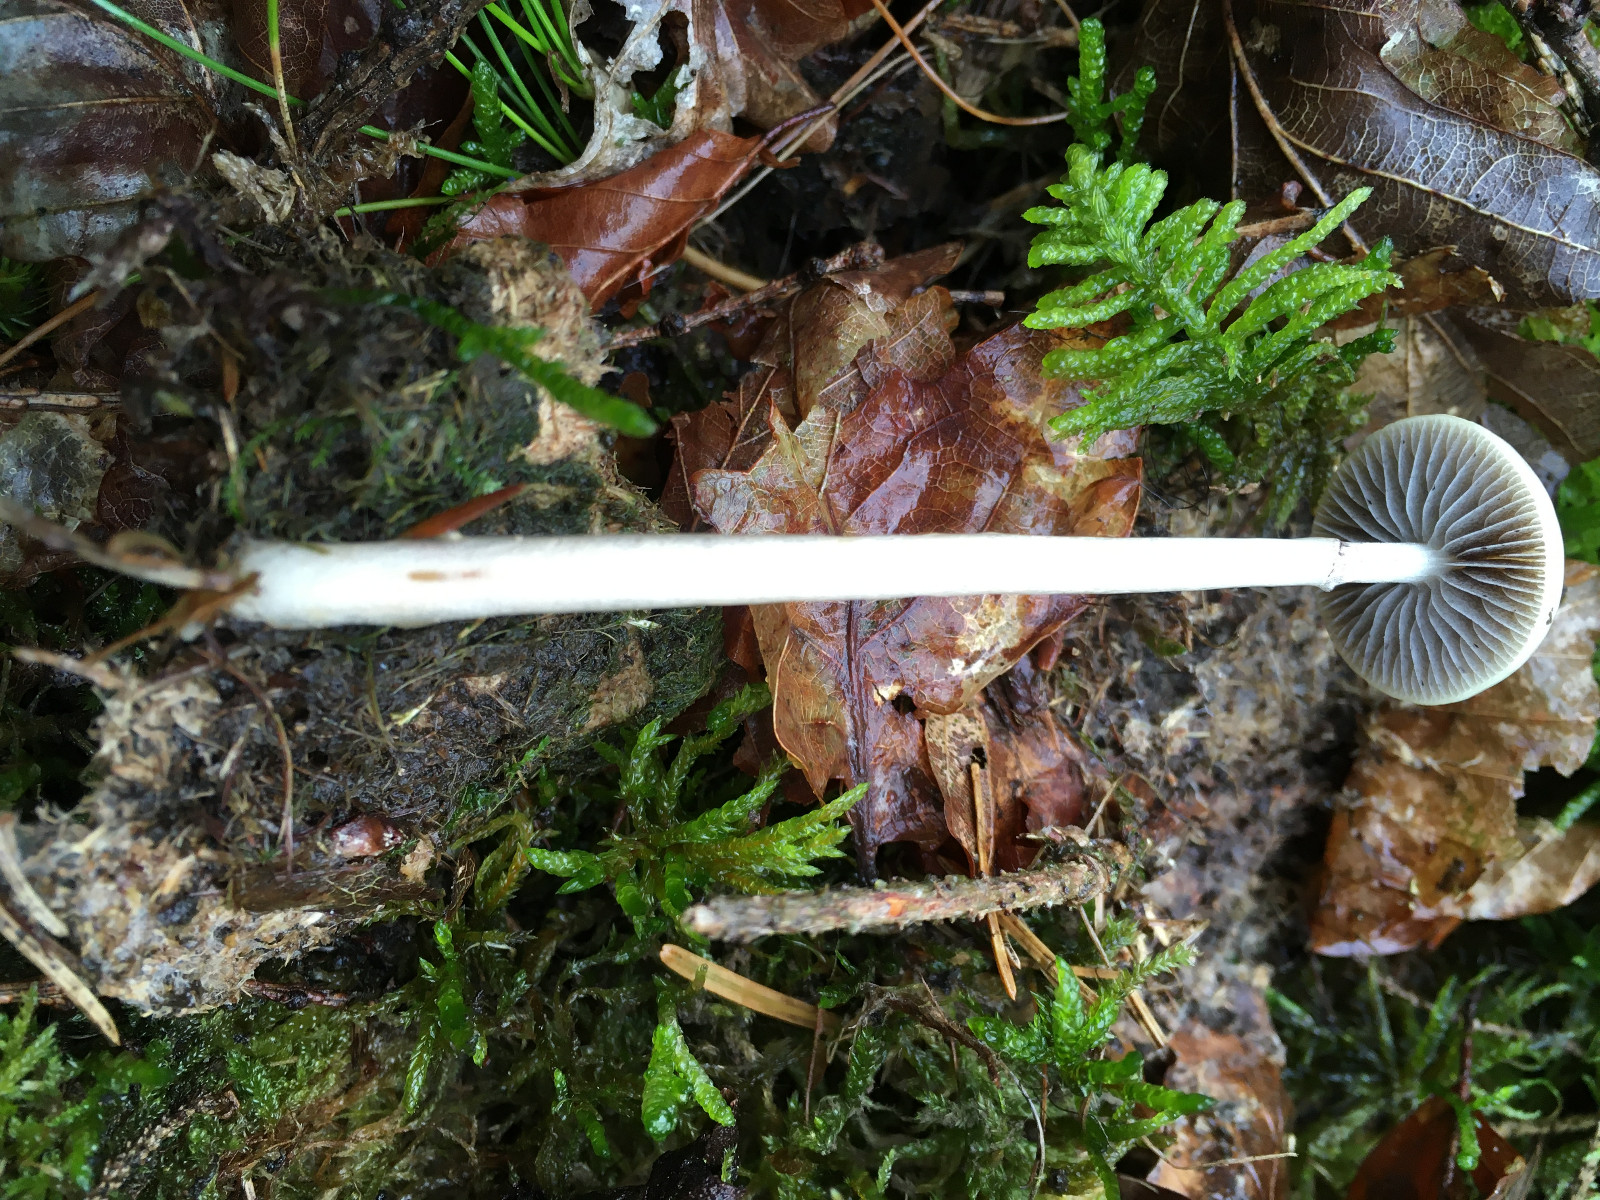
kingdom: Fungi
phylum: Basidiomycota
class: Agaricomycetes
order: Agaricales
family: Strophariaceae
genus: Protostropharia
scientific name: Protostropharia semiglobata
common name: halvkugleformet bredblad
